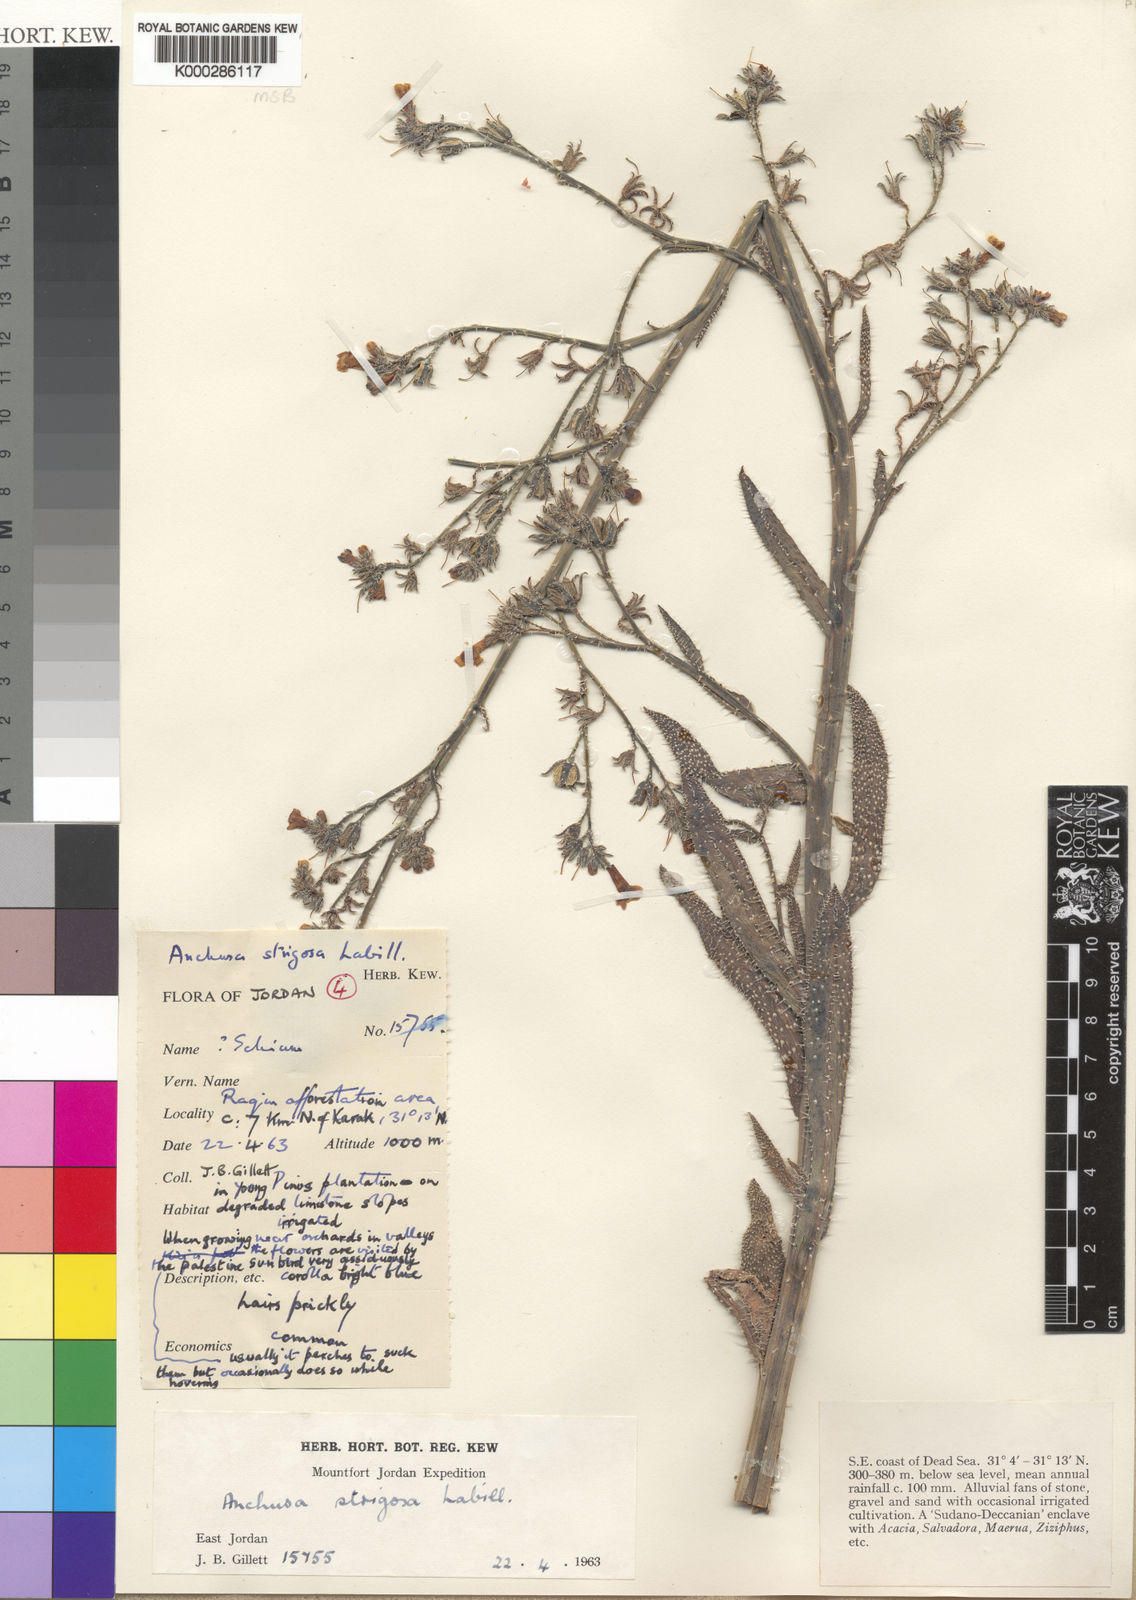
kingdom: Plantae
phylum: Tracheophyta
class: Magnoliopsida
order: Boraginales
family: Boraginaceae
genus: Anchusa
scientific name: Anchusa strigosa
